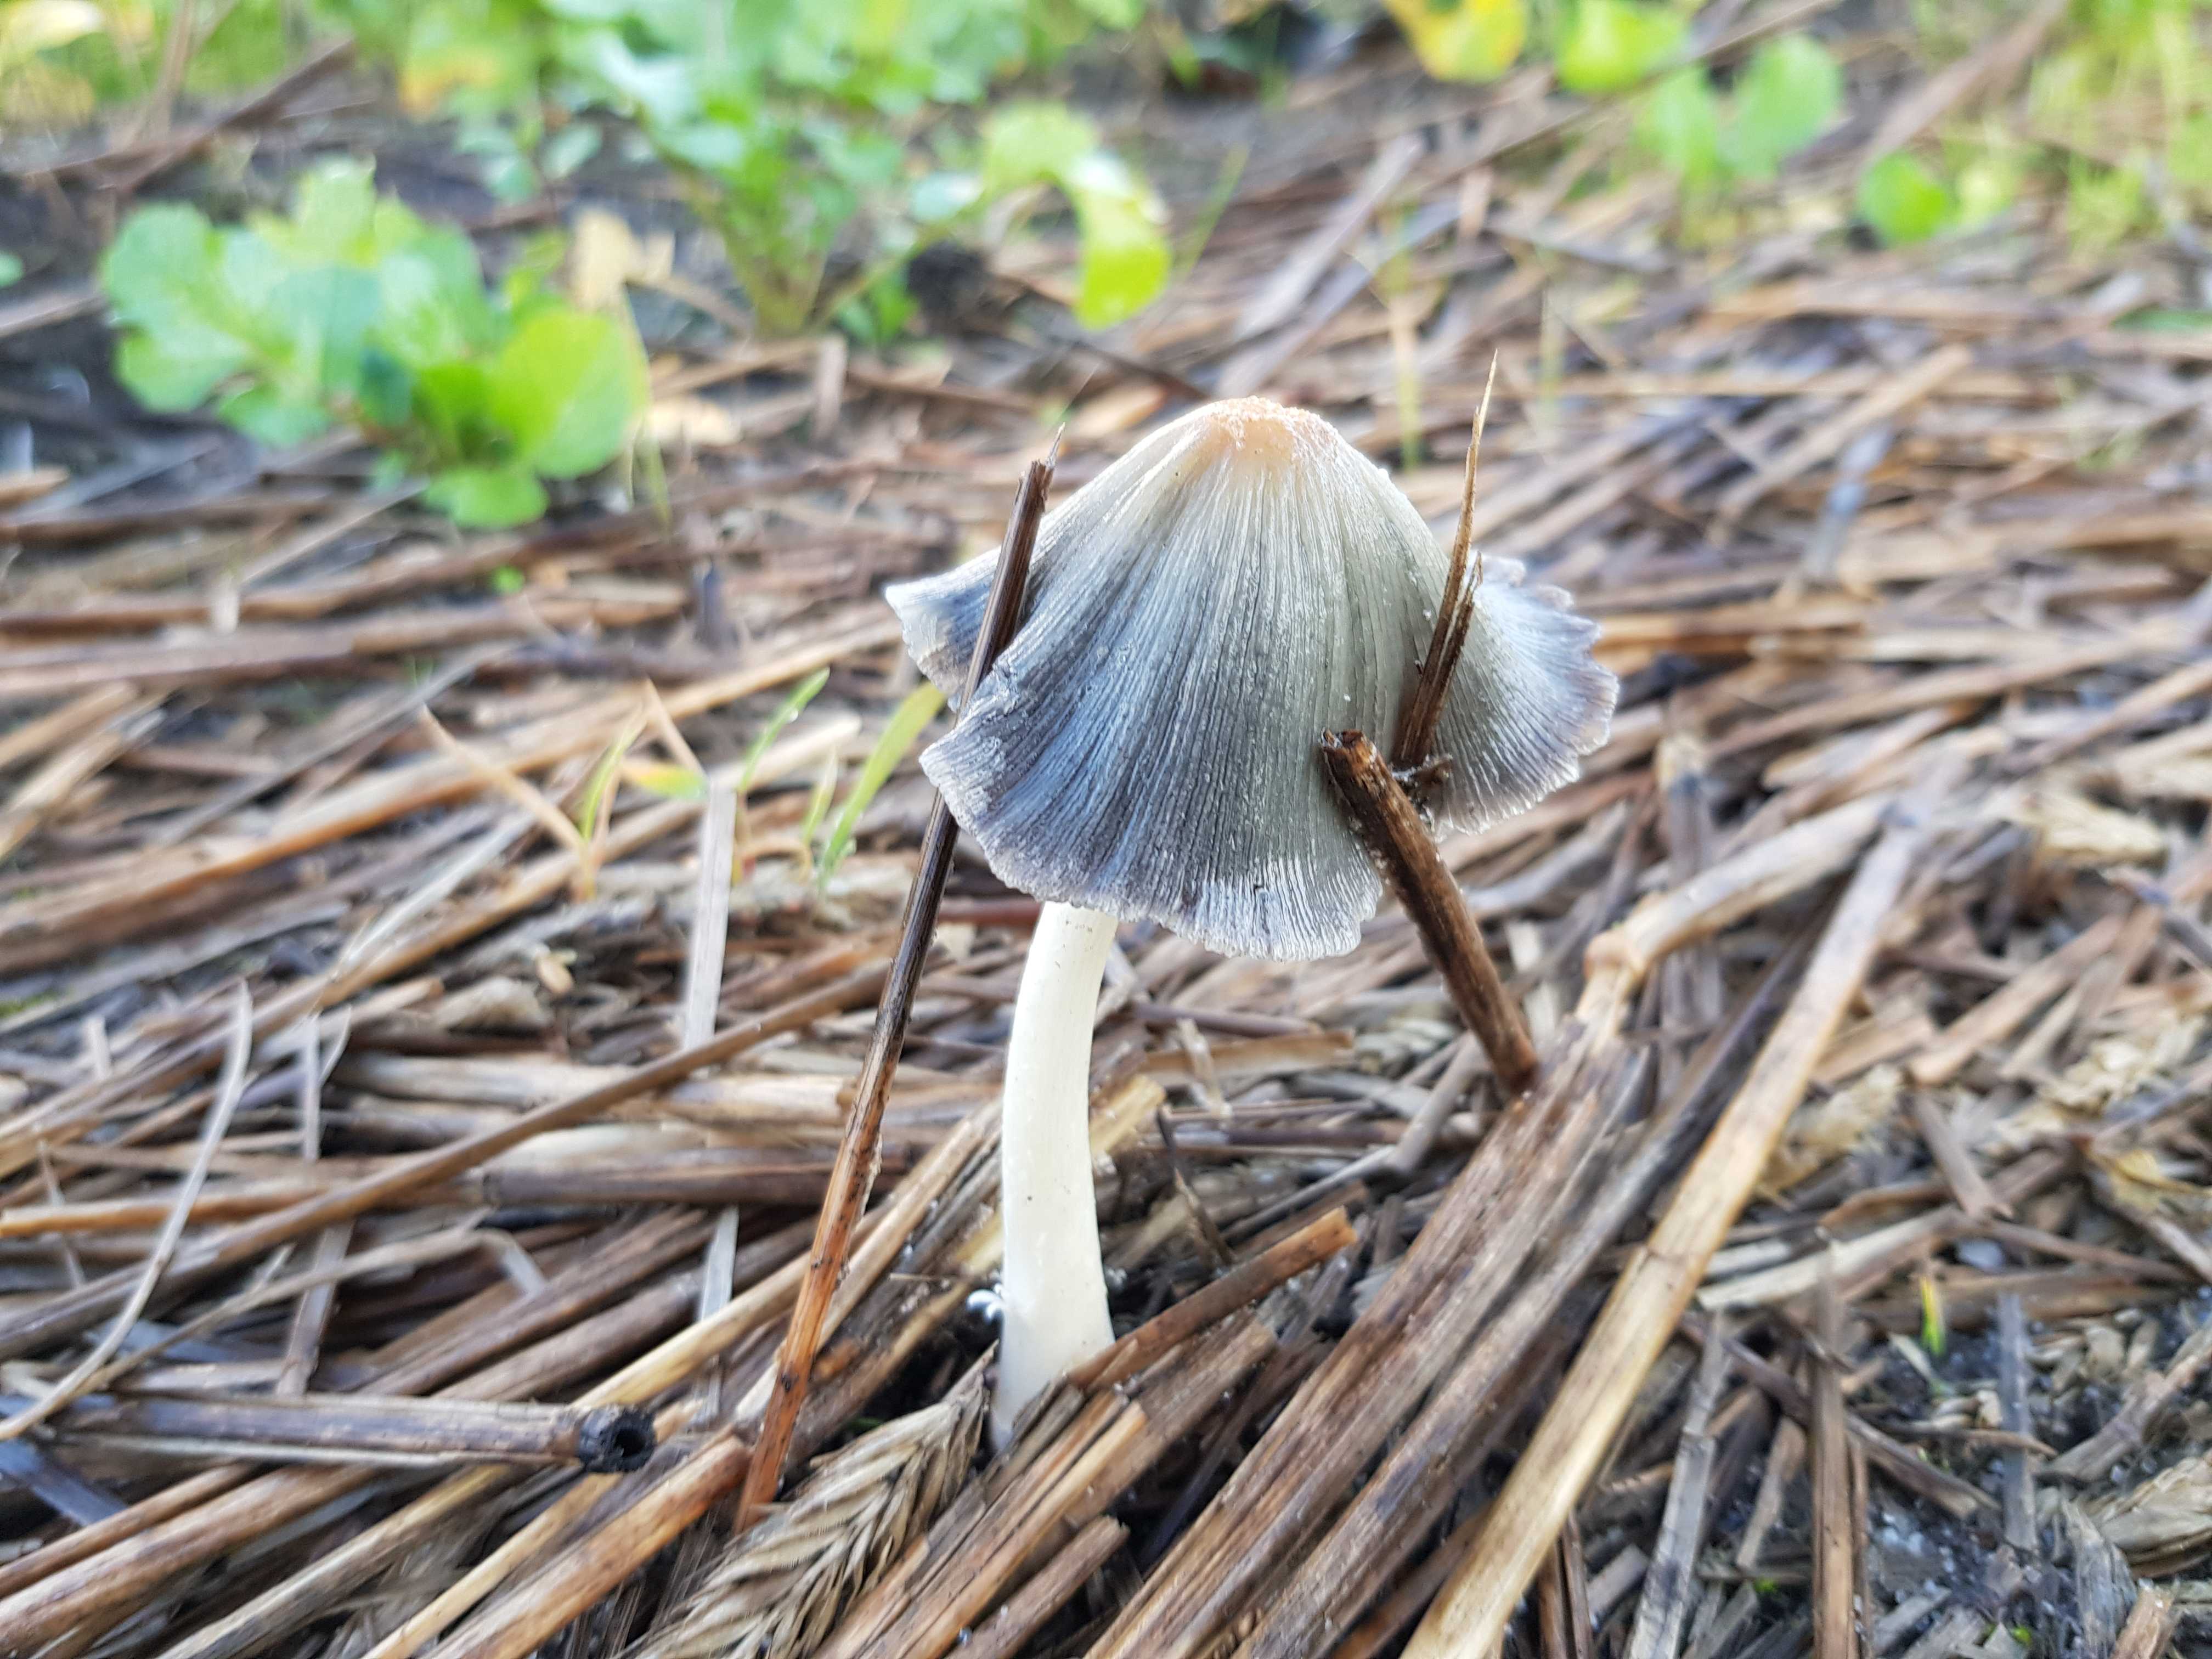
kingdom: Fungi
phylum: Basidiomycota
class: Agaricomycetes
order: Agaricales
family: Psathyrellaceae
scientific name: Psathyrellaceae
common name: mørkhatfamilien
